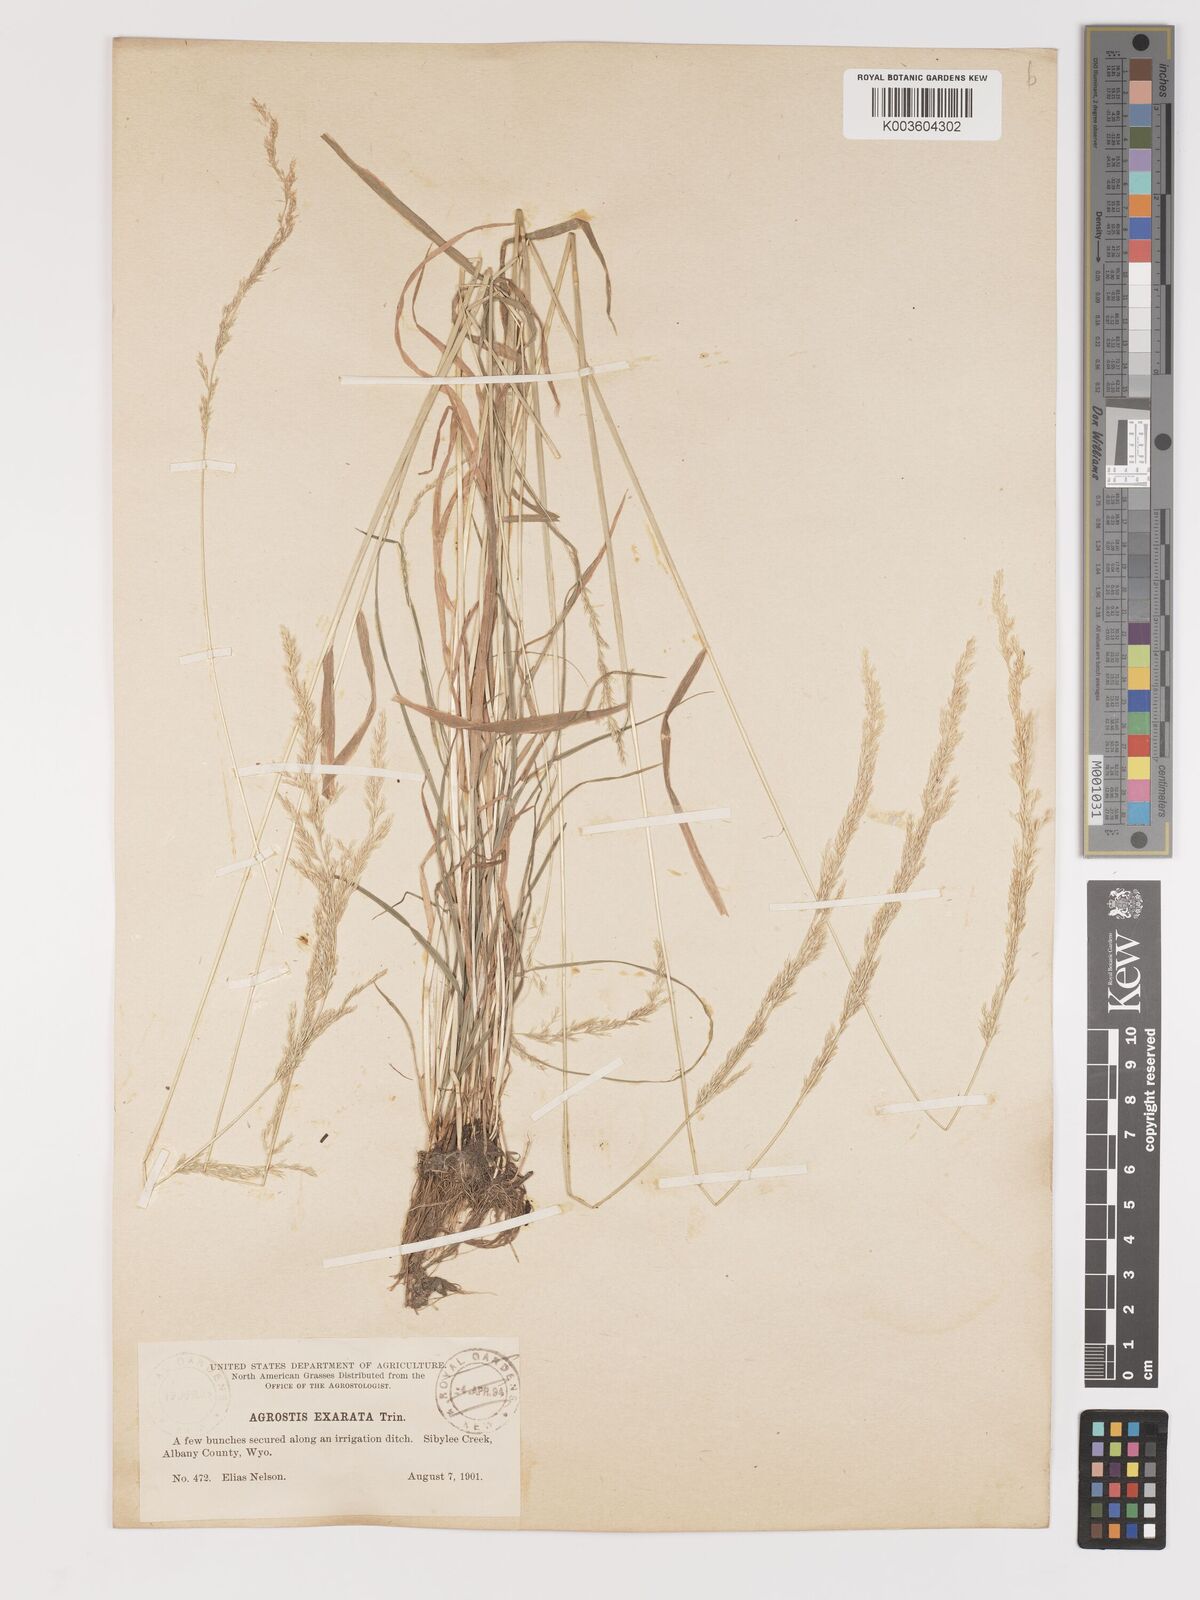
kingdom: Plantae
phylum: Tracheophyta
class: Liliopsida
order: Poales
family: Poaceae
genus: Agrostis
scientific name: Agrostis exarata
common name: Spike bent
